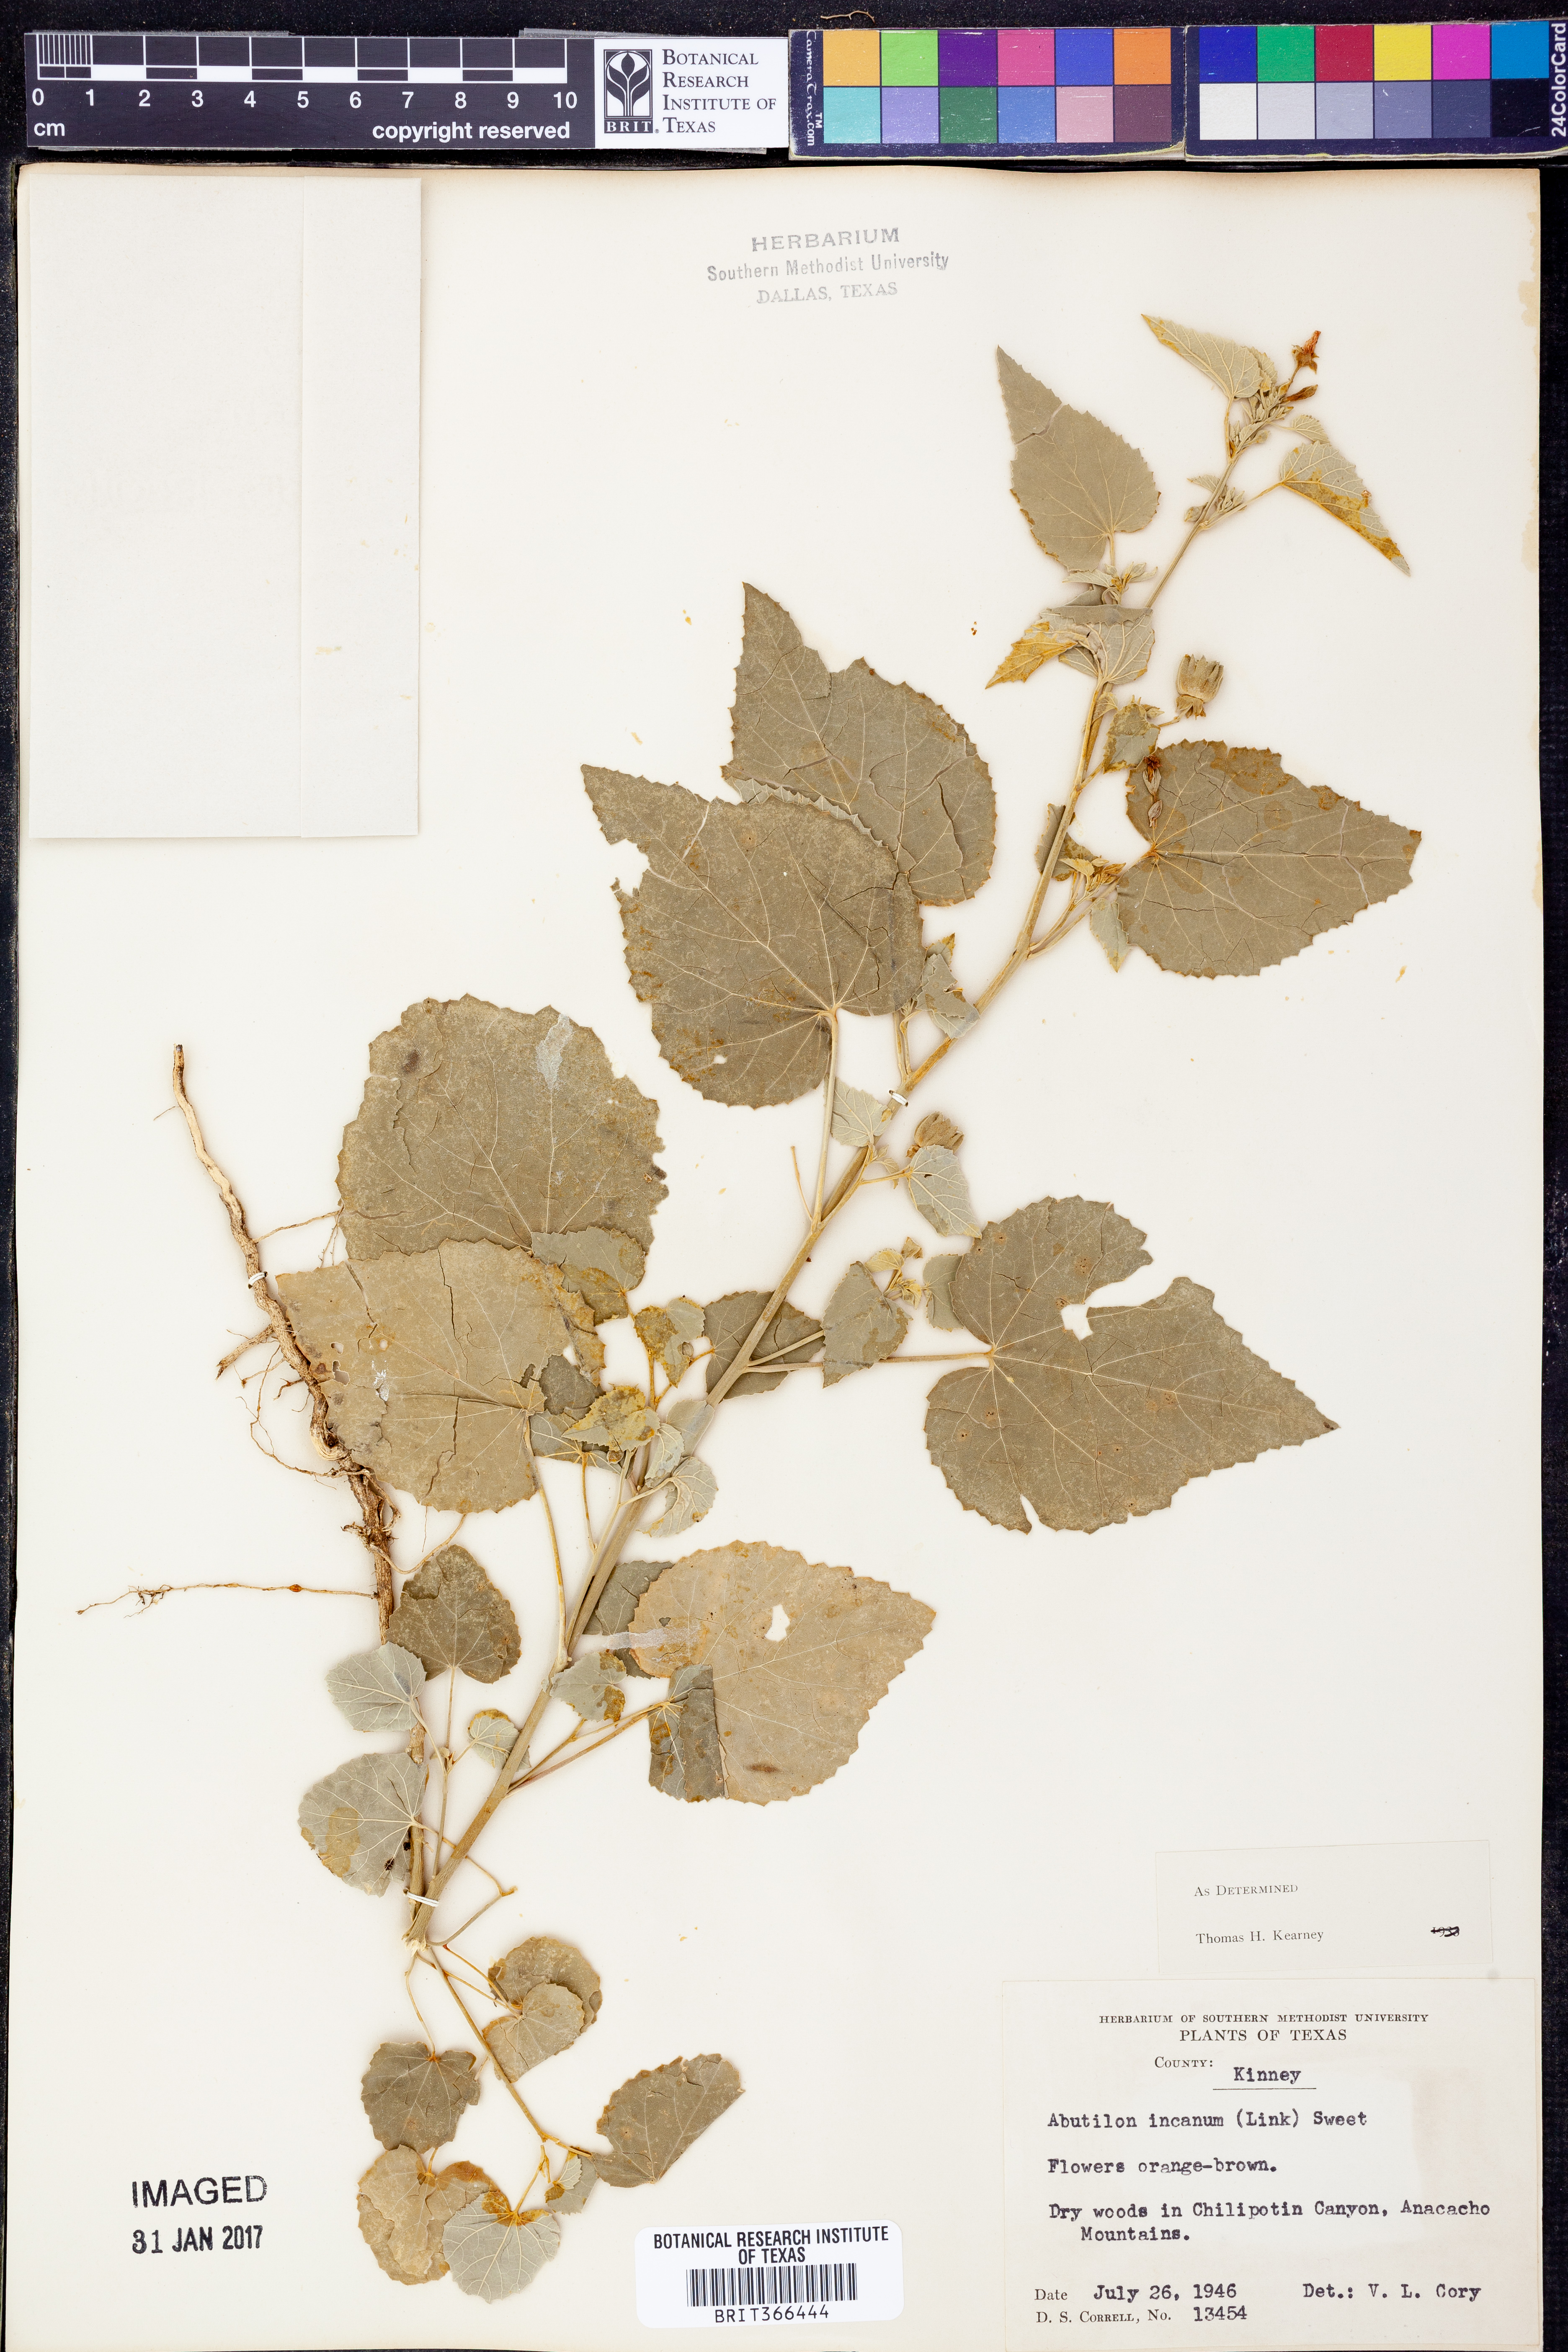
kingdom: Plantae
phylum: Tracheophyta
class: Magnoliopsida
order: Malvales
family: Malvaceae
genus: Abutilon
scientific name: Abutilon incanum
